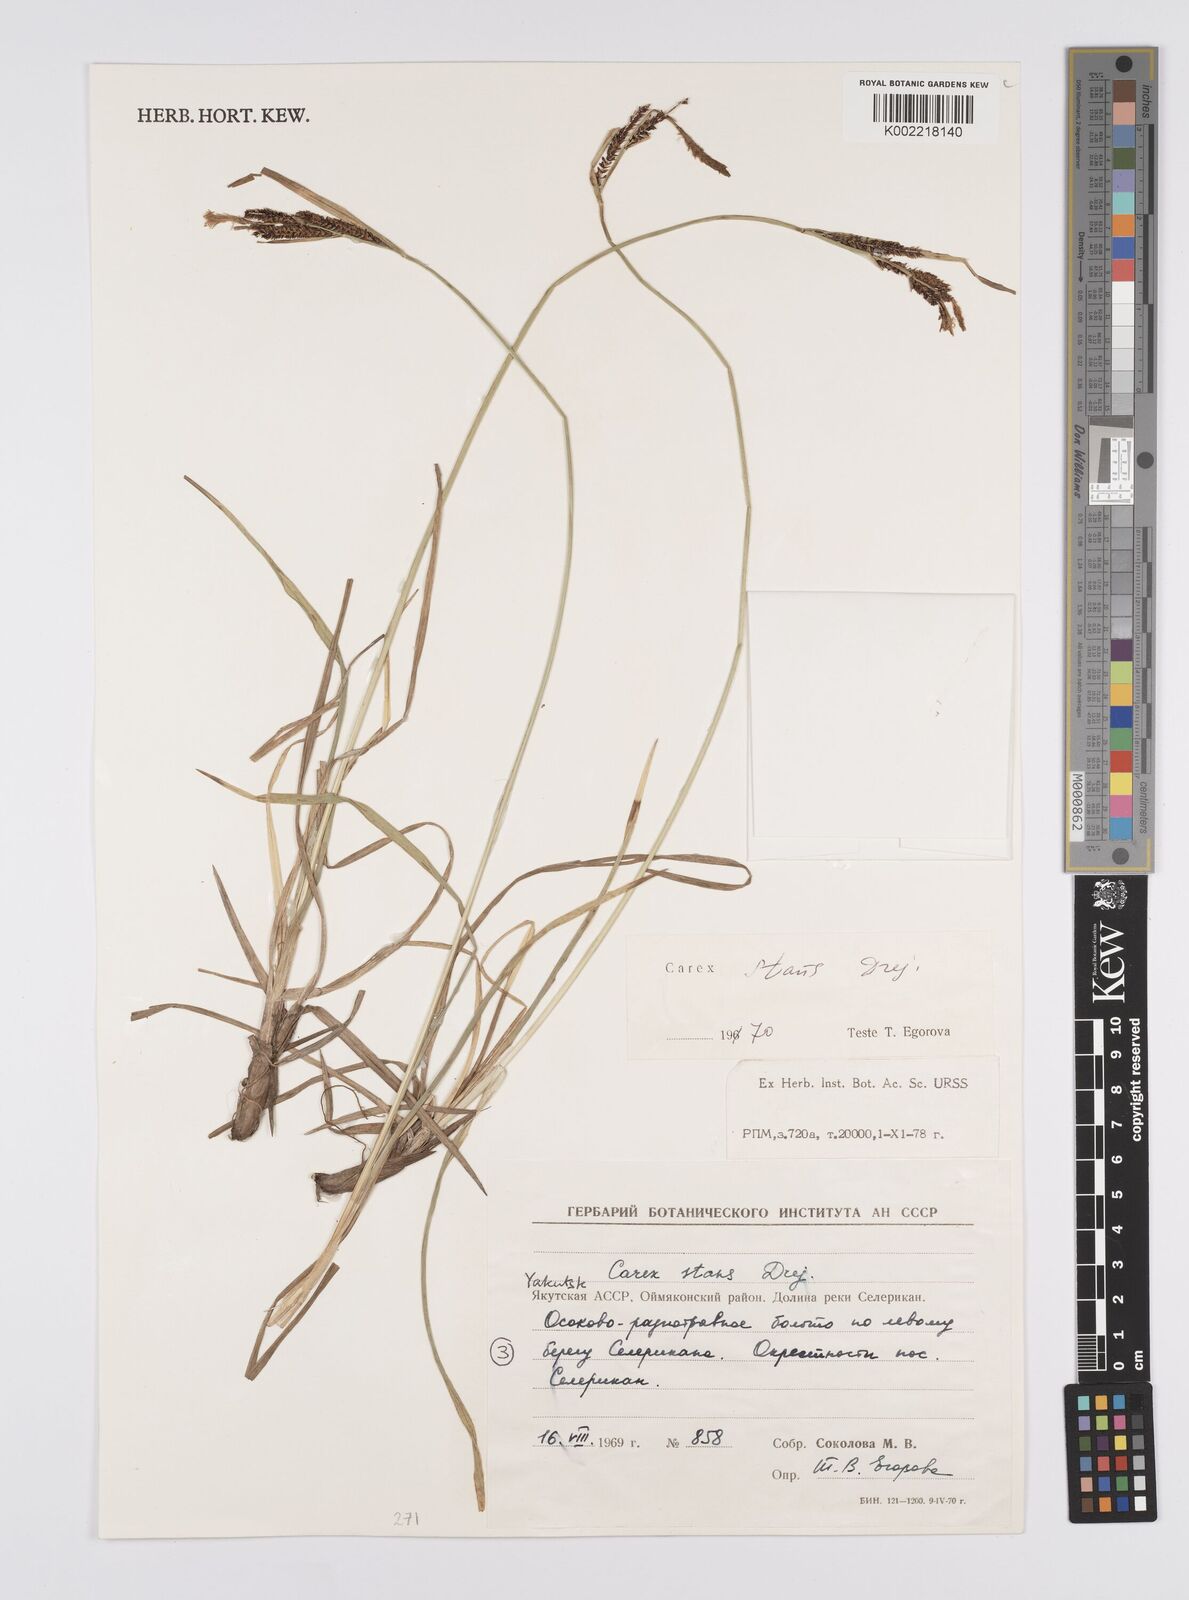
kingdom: Plantae
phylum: Tracheophyta
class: Liliopsida
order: Poales
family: Cyperaceae
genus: Carex
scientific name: Carex aquatilis
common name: Water sedge
